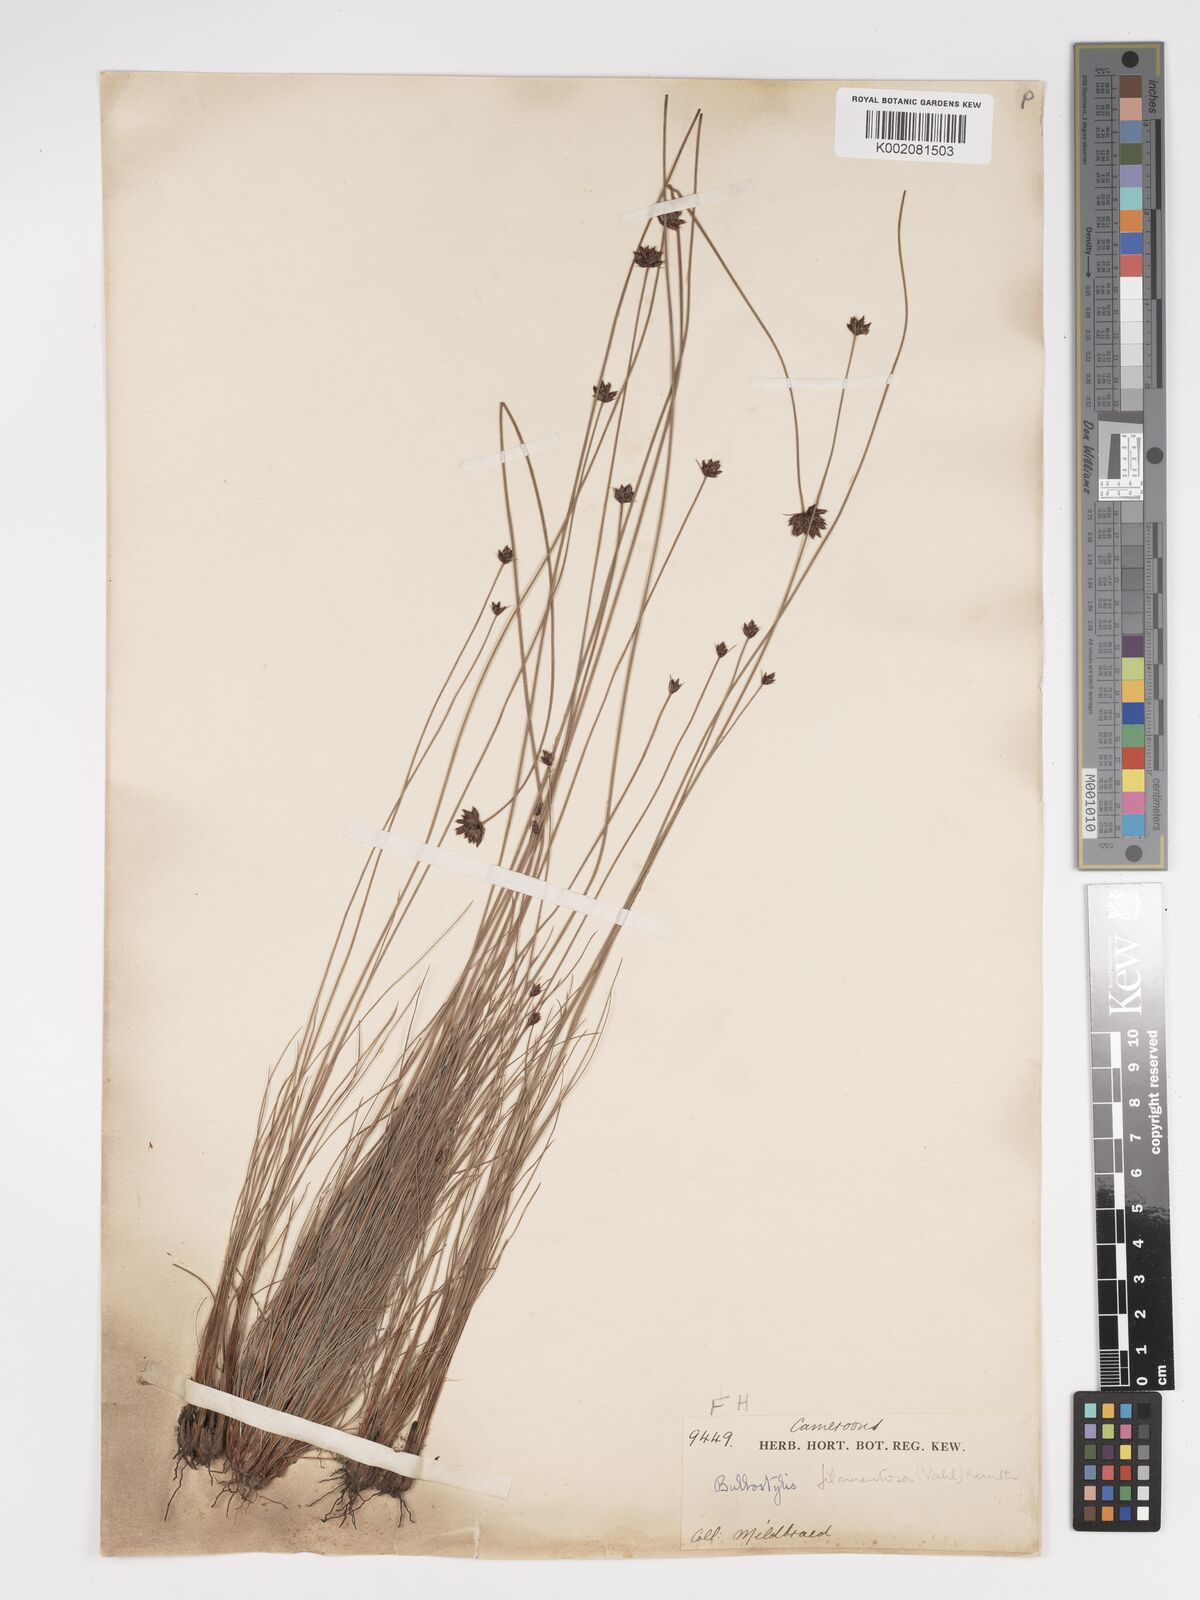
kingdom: Plantae
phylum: Tracheophyta
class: Liliopsida
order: Poales
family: Cyperaceae
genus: Bulbostylis
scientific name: Bulbostylis scabricaulis
